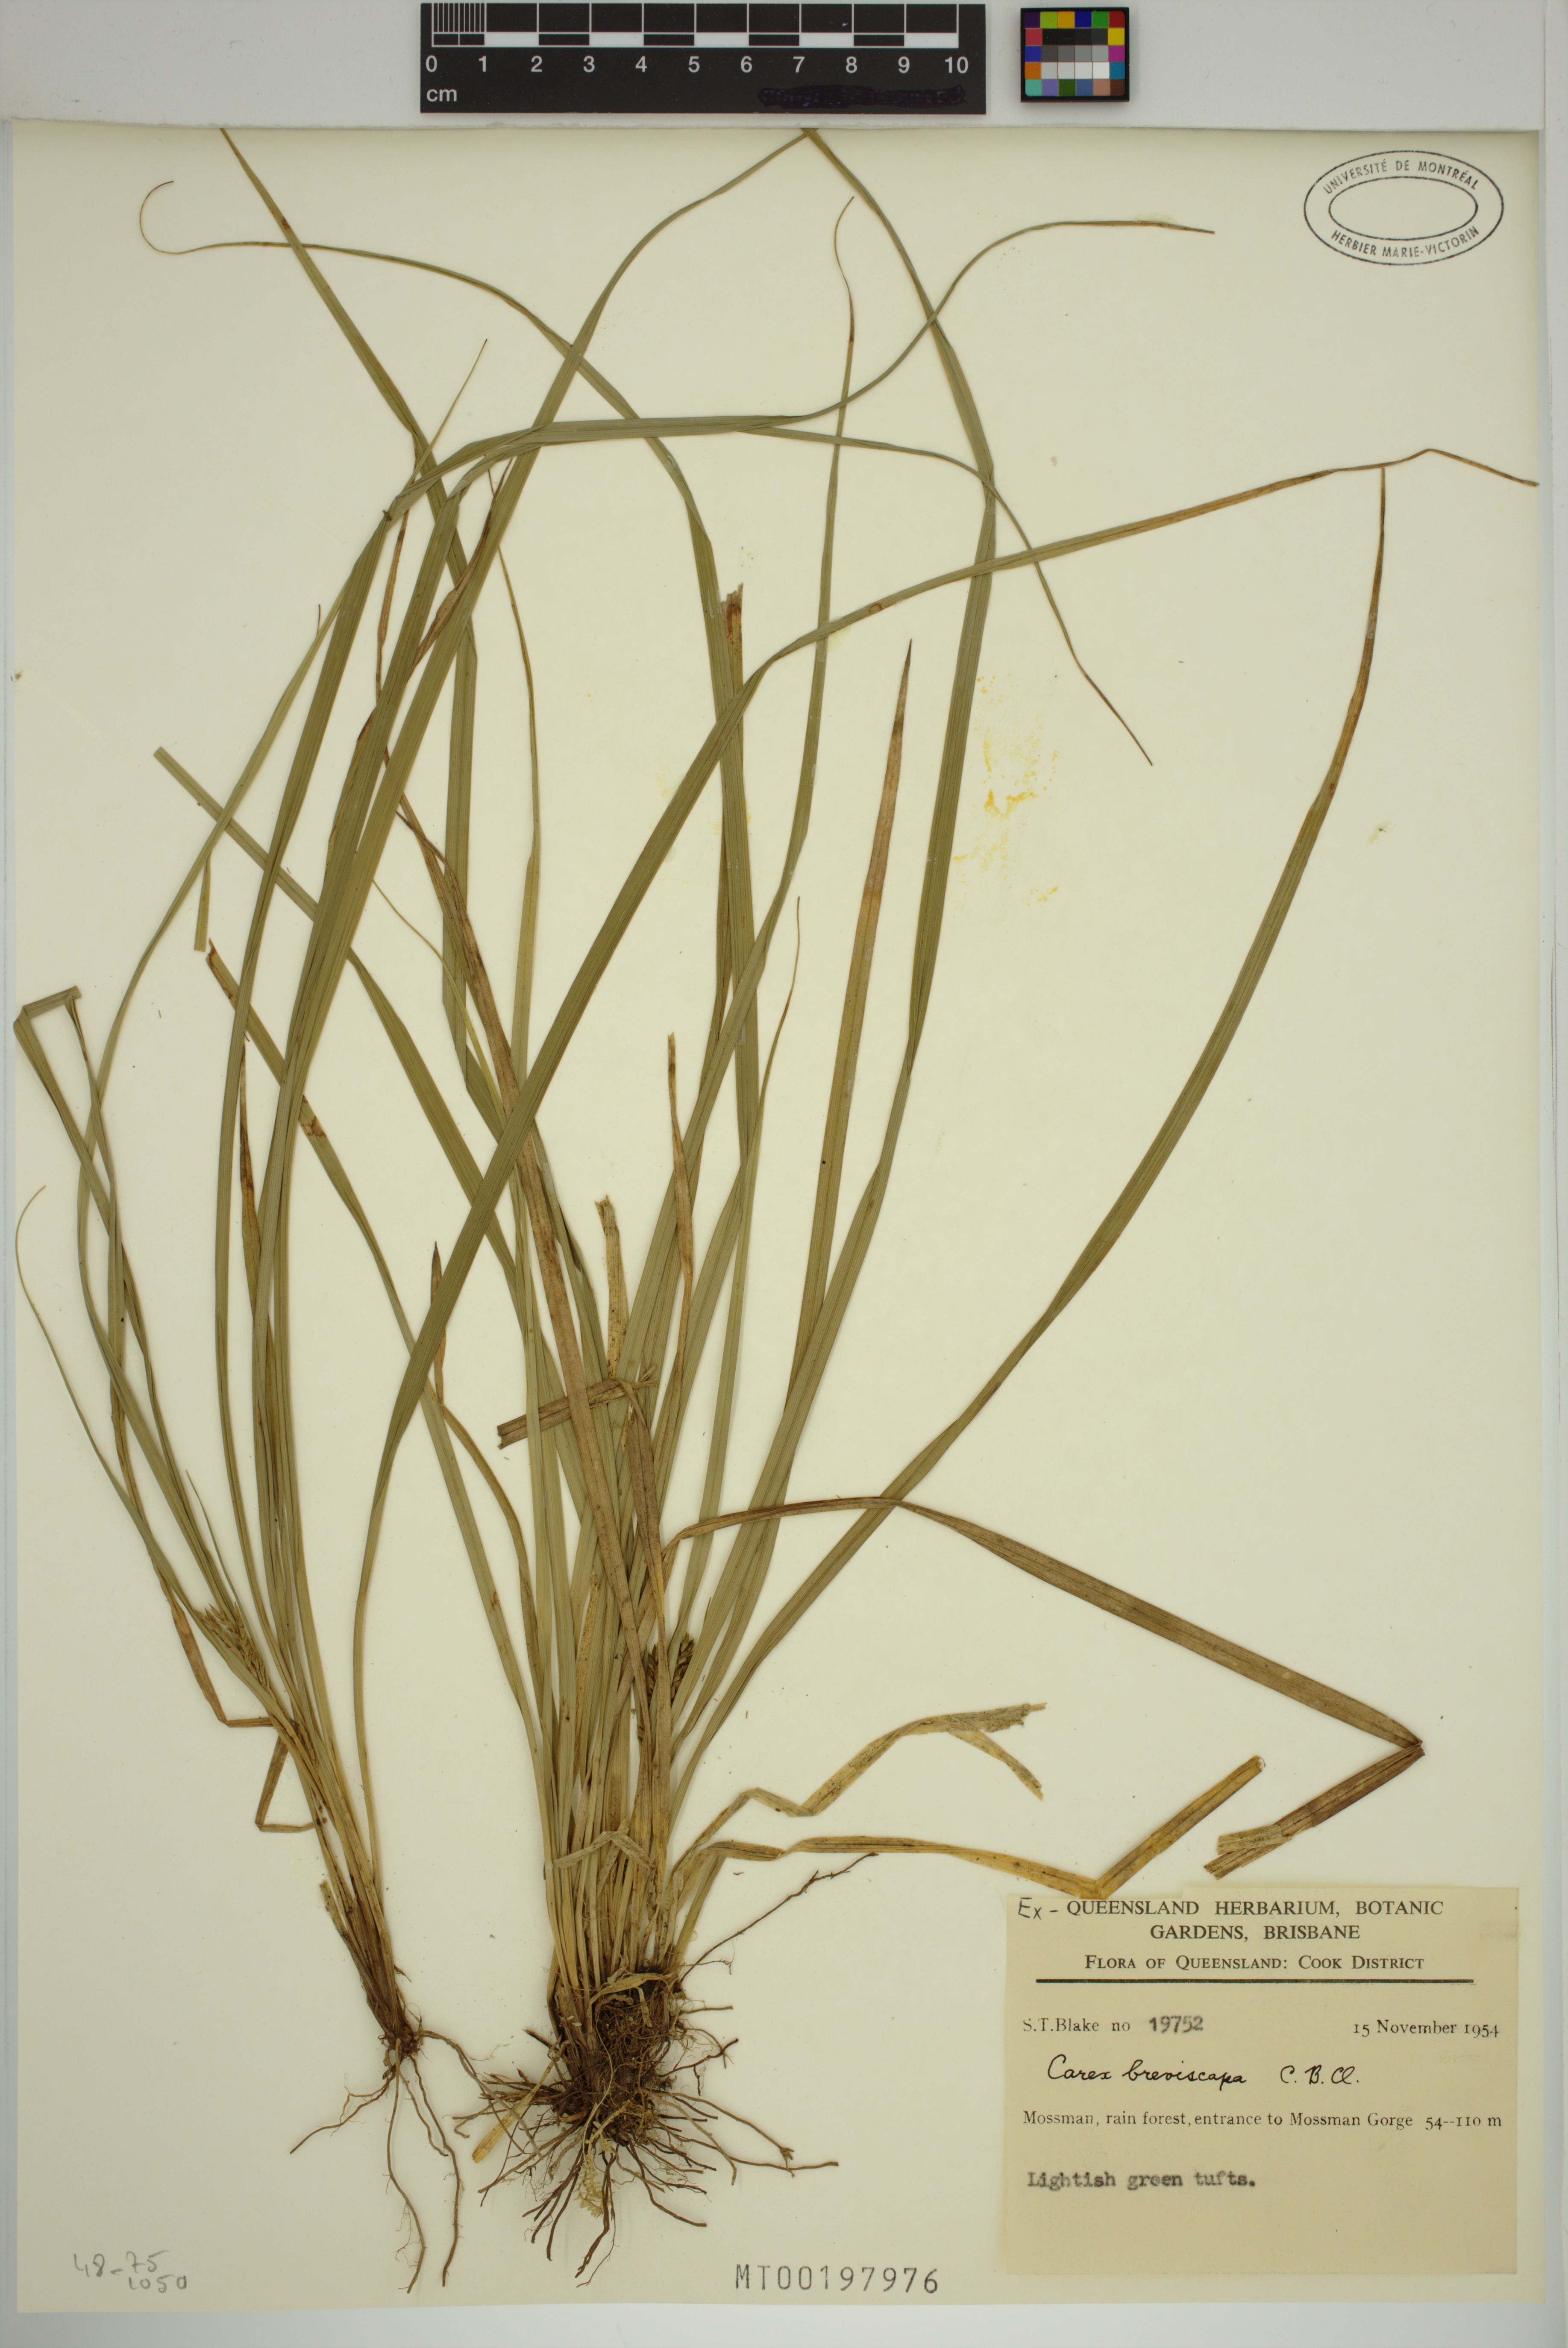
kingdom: Plantae
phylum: Tracheophyta
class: Liliopsida
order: Poales
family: Cyperaceae
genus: Carex
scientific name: Carex breviscapa
